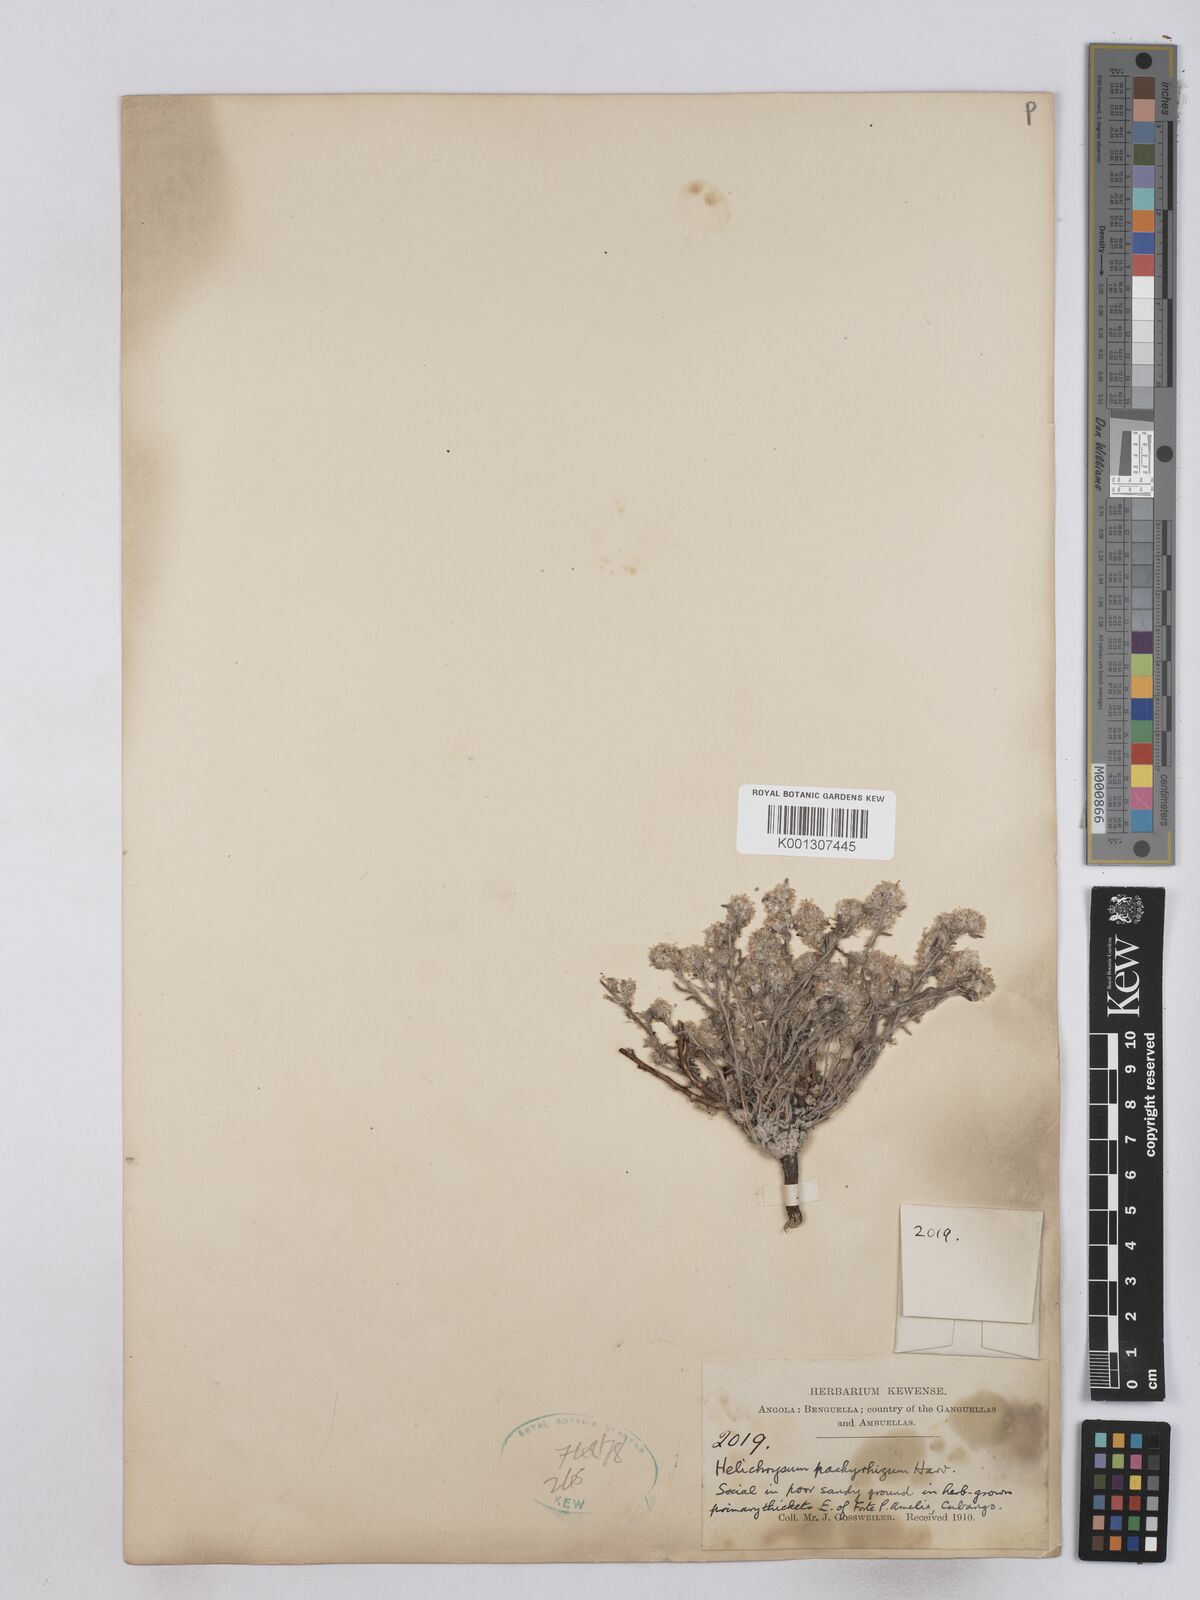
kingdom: Plantae
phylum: Tracheophyta
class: Magnoliopsida
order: Asterales
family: Asteraceae
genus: Helichrysum
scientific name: Helichrysum candolleanum
